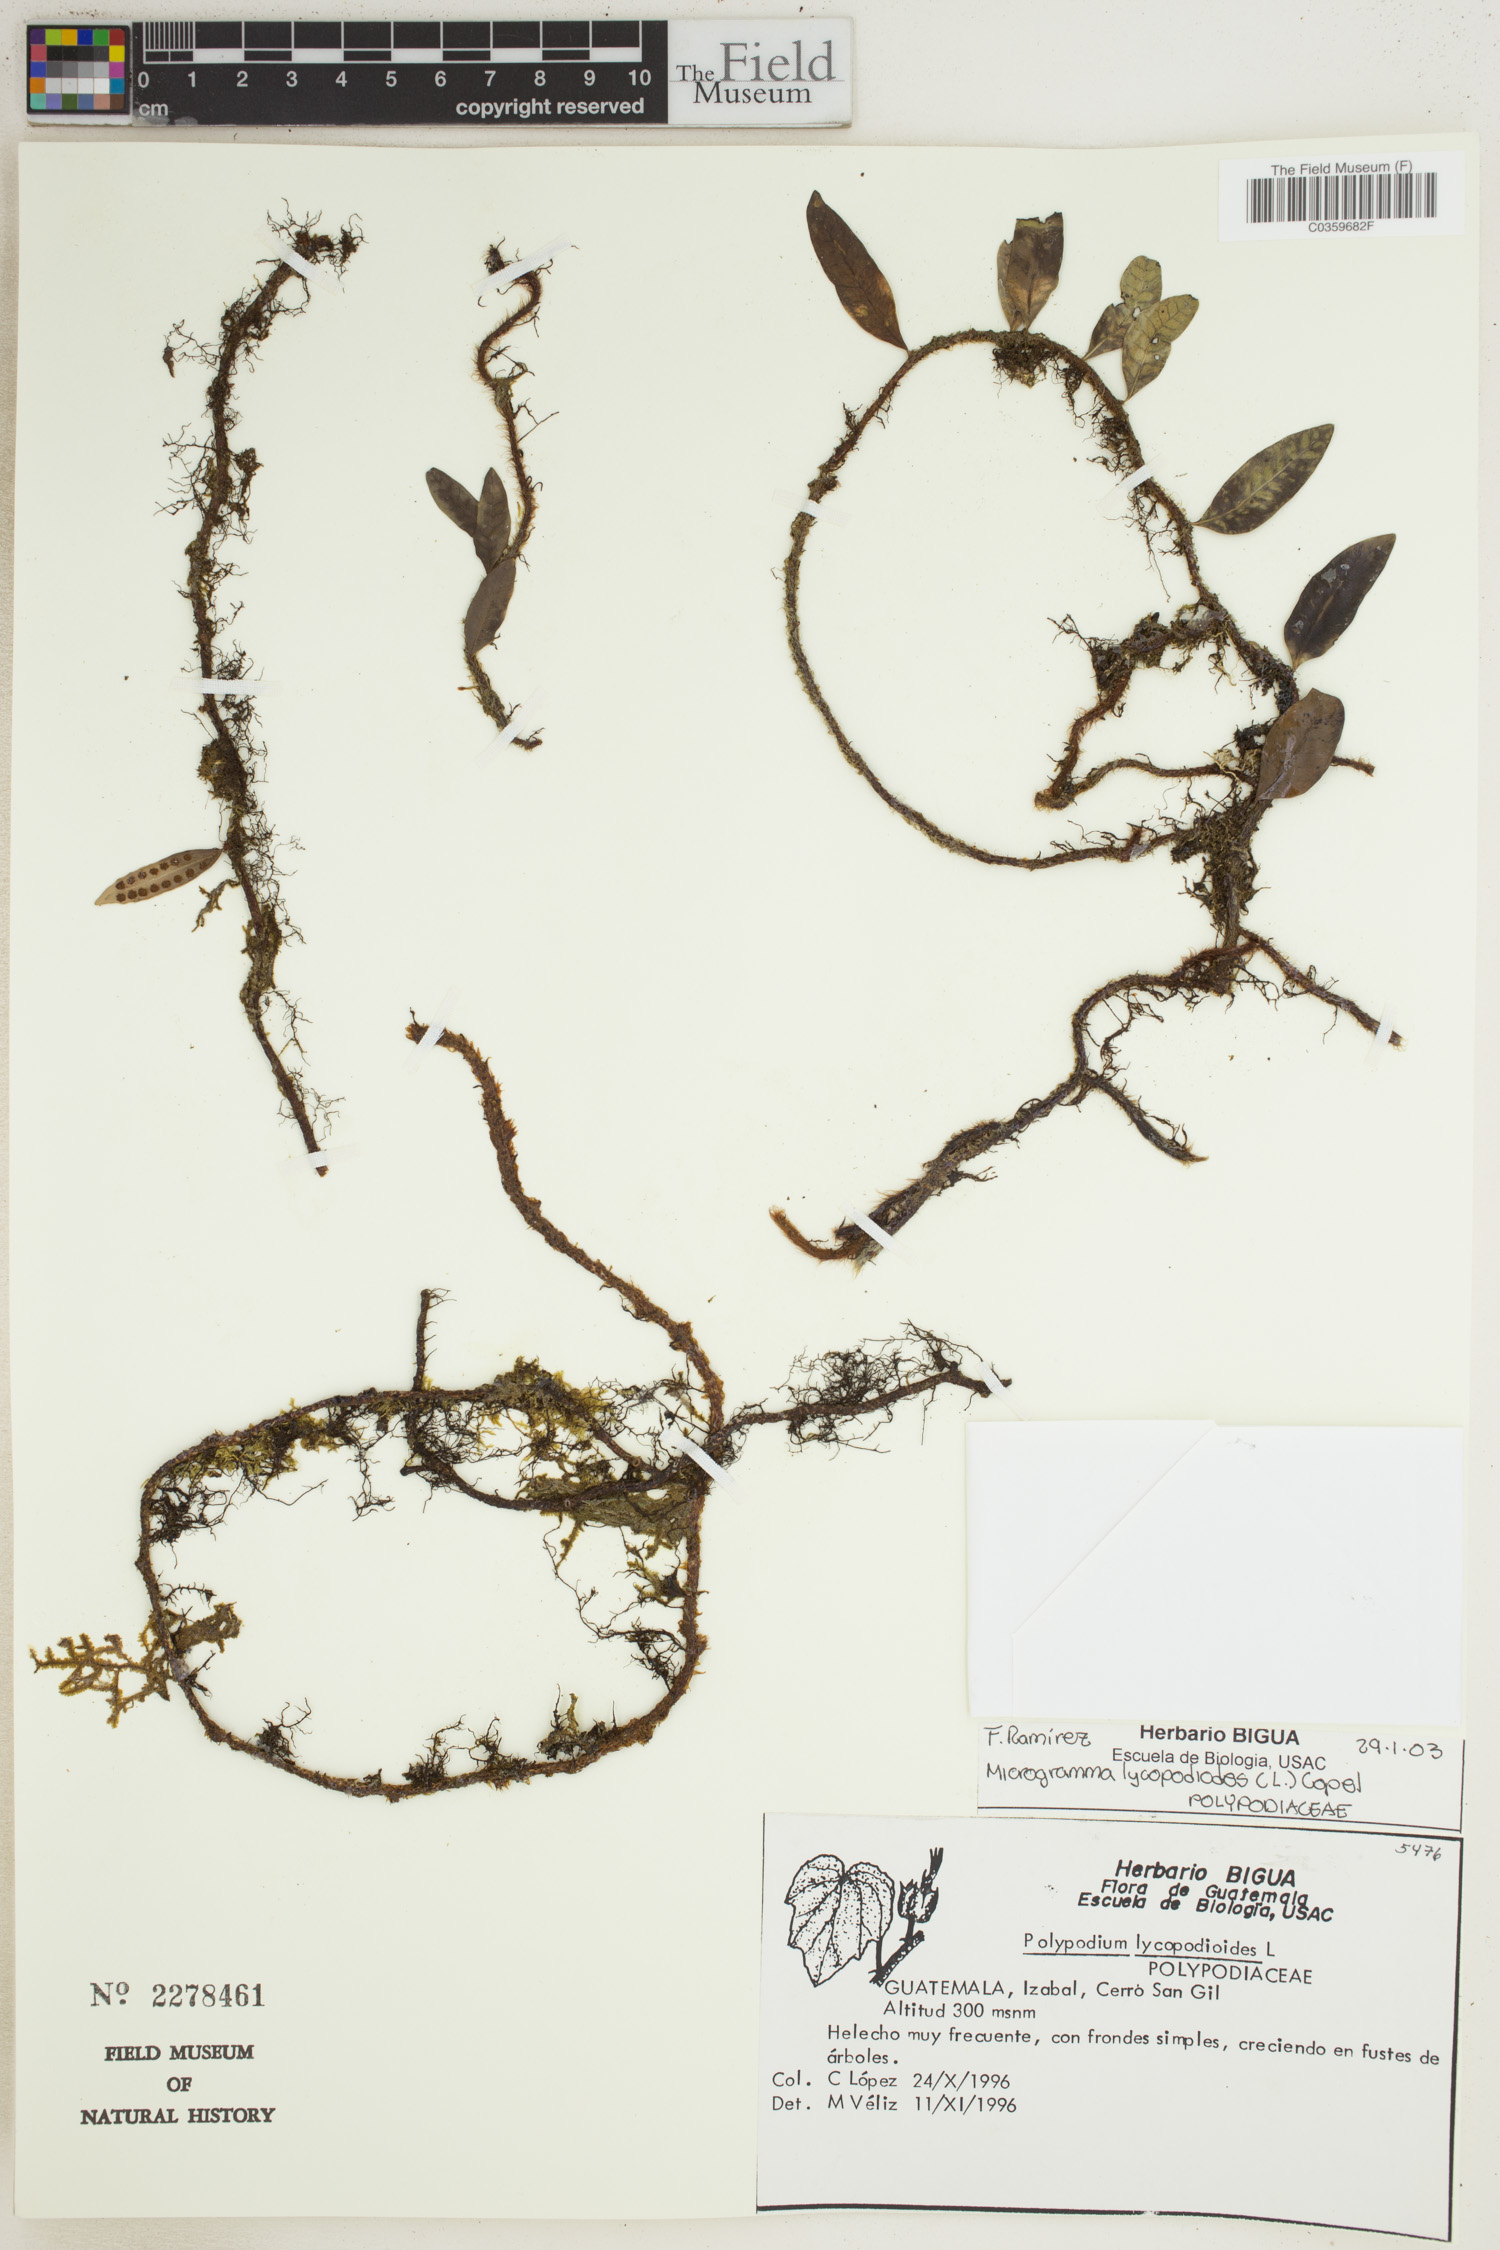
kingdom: Plantae
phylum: Tracheophyta
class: Polypodiopsida
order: Polypodiales
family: Polypodiaceae
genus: Microgramma
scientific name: Microgramma lycopodioides
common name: Bastard catclaw
